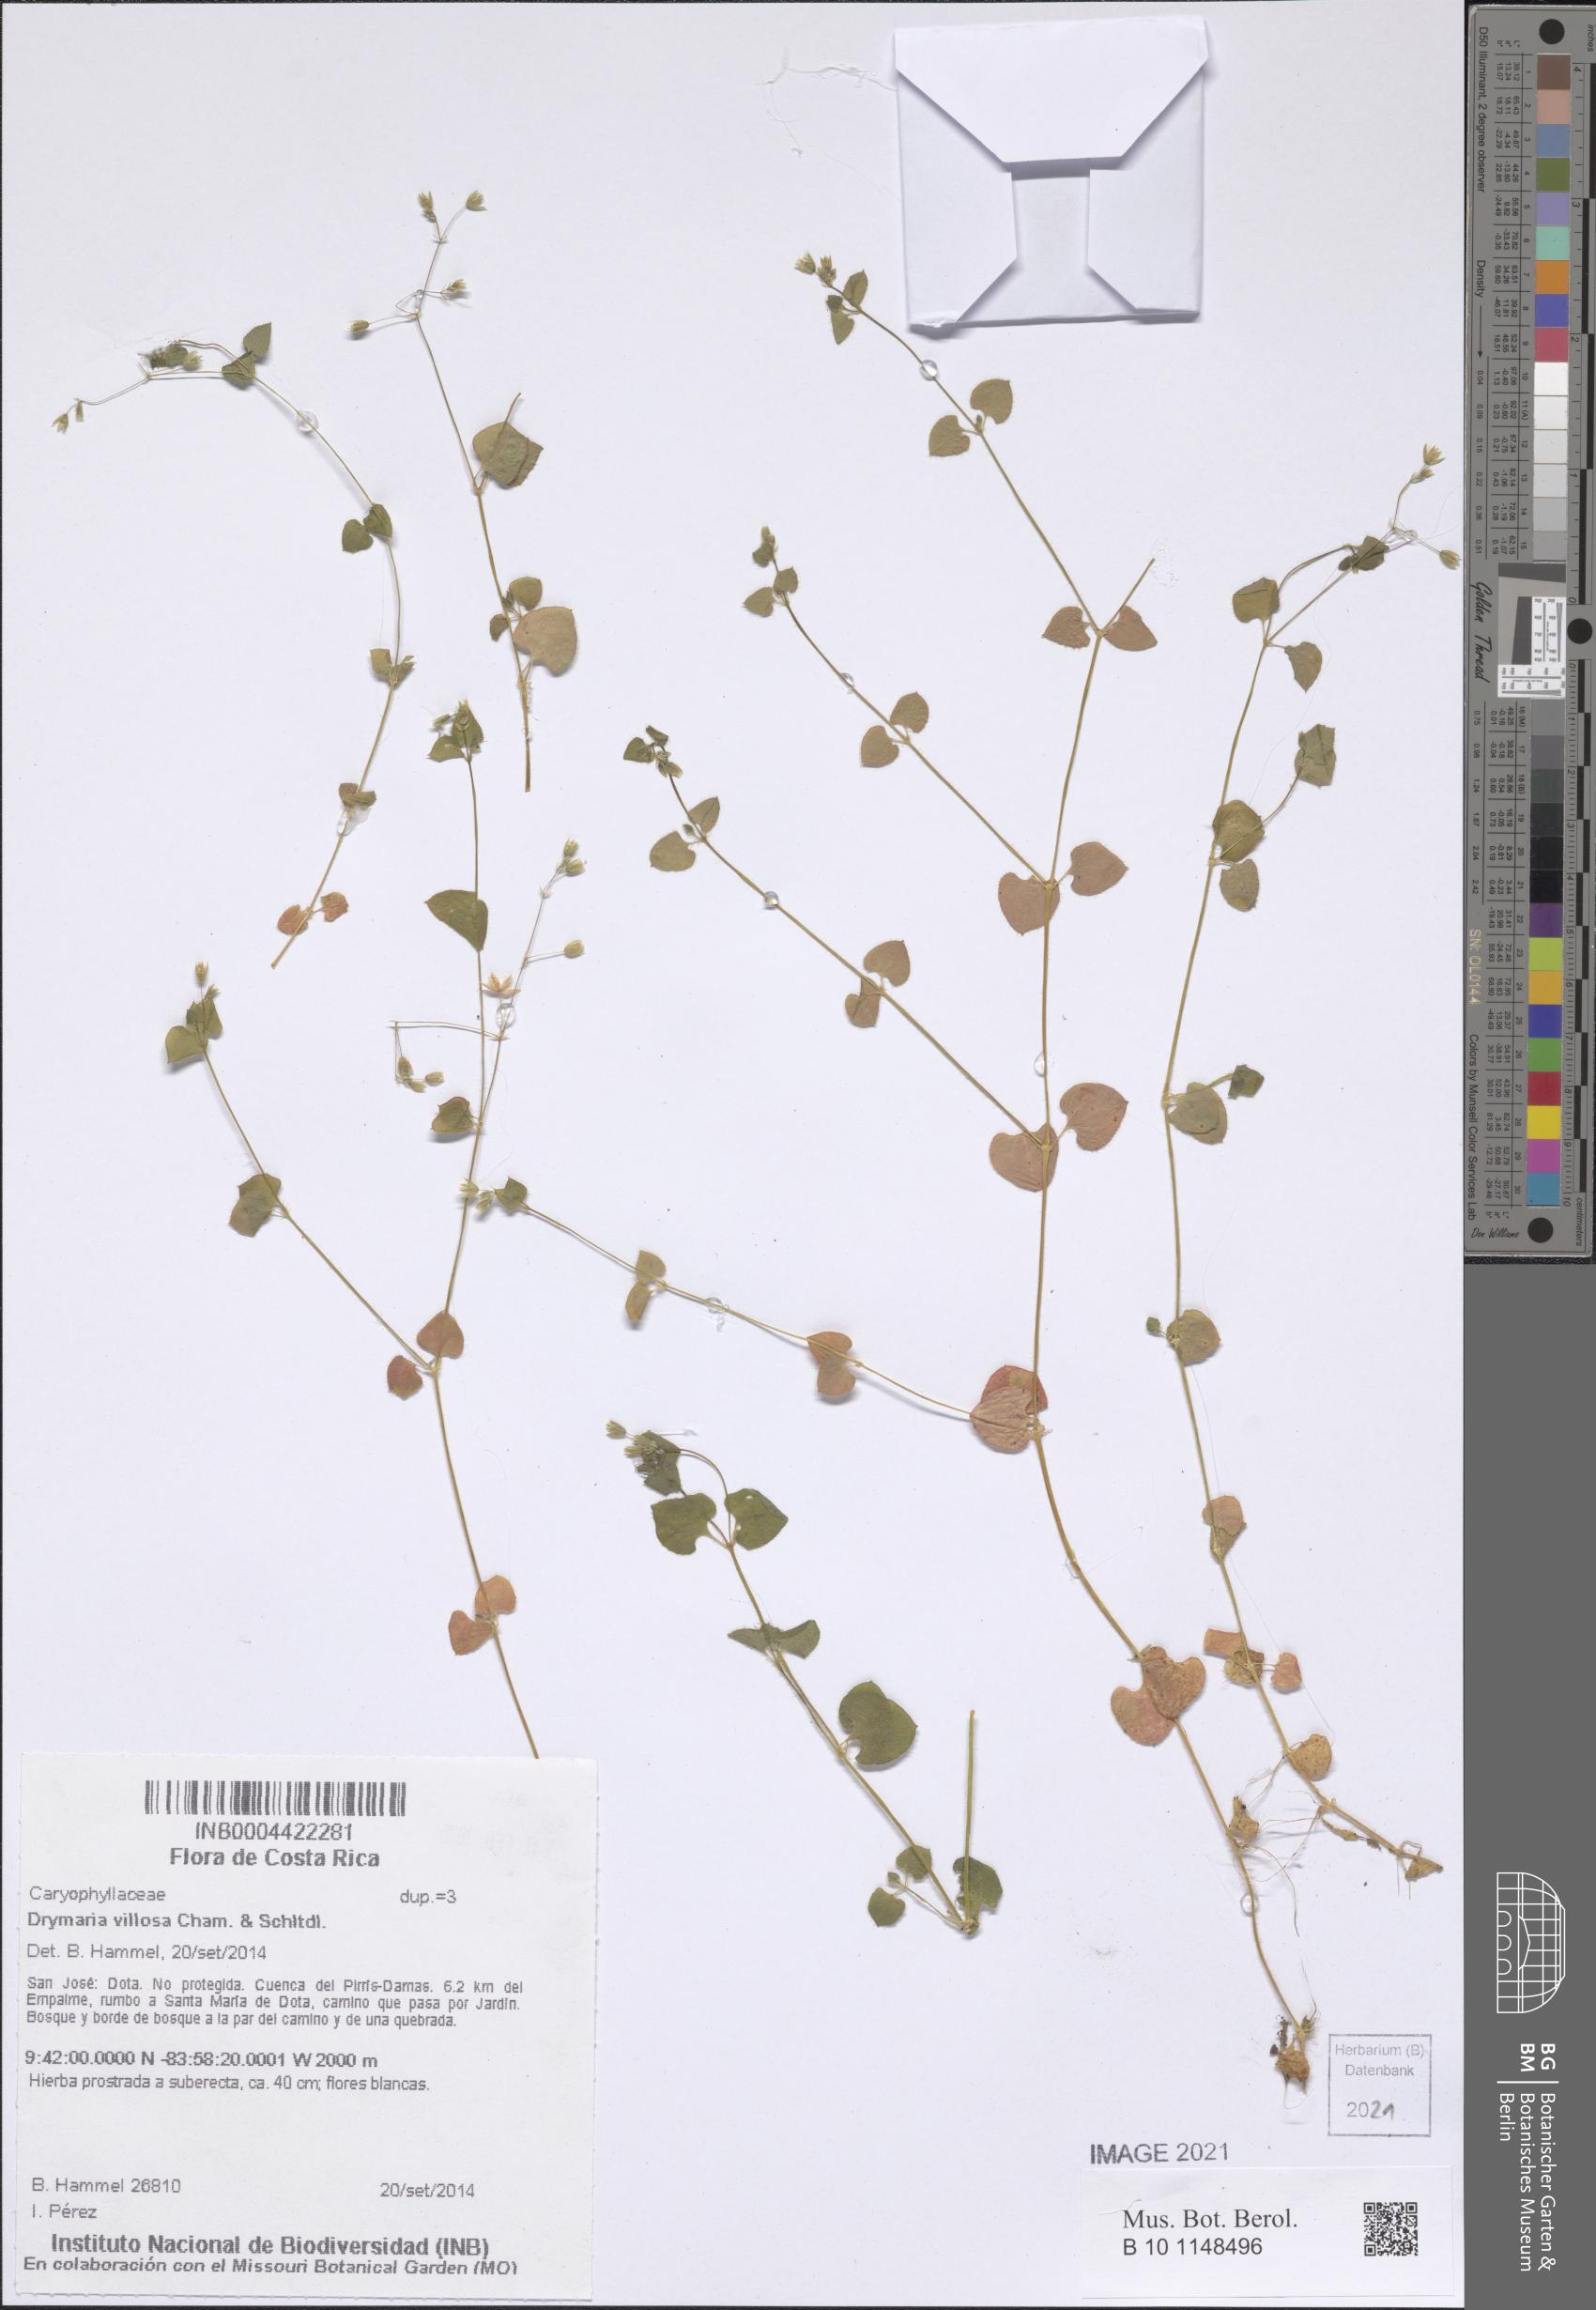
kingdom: Plantae
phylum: Tracheophyta
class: Magnoliopsida
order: Caryophyllales
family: Caryophyllaceae
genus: Drymaria
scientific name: Drymaria villosa
